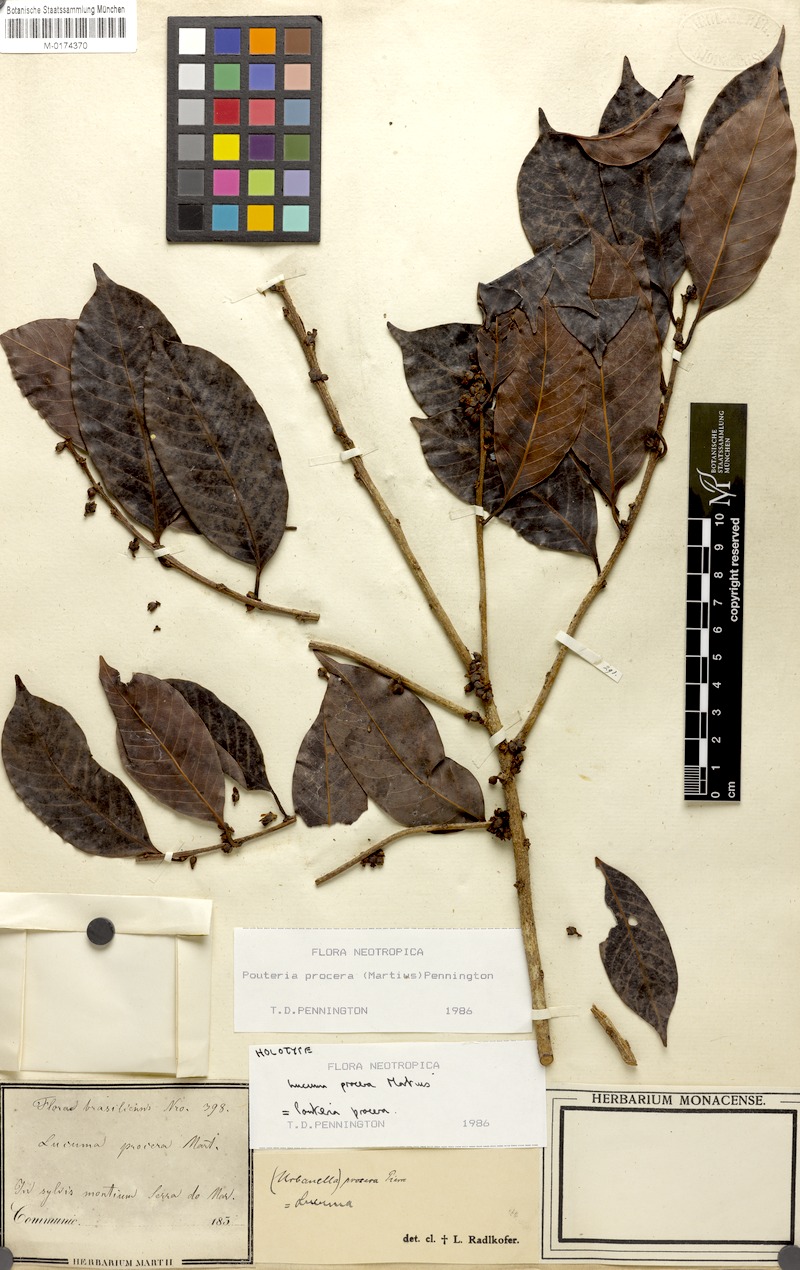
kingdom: Plantae
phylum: Tracheophyta
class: Magnoliopsida
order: Ericales
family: Sapotaceae
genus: Pouteria
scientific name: Pouteria procera
